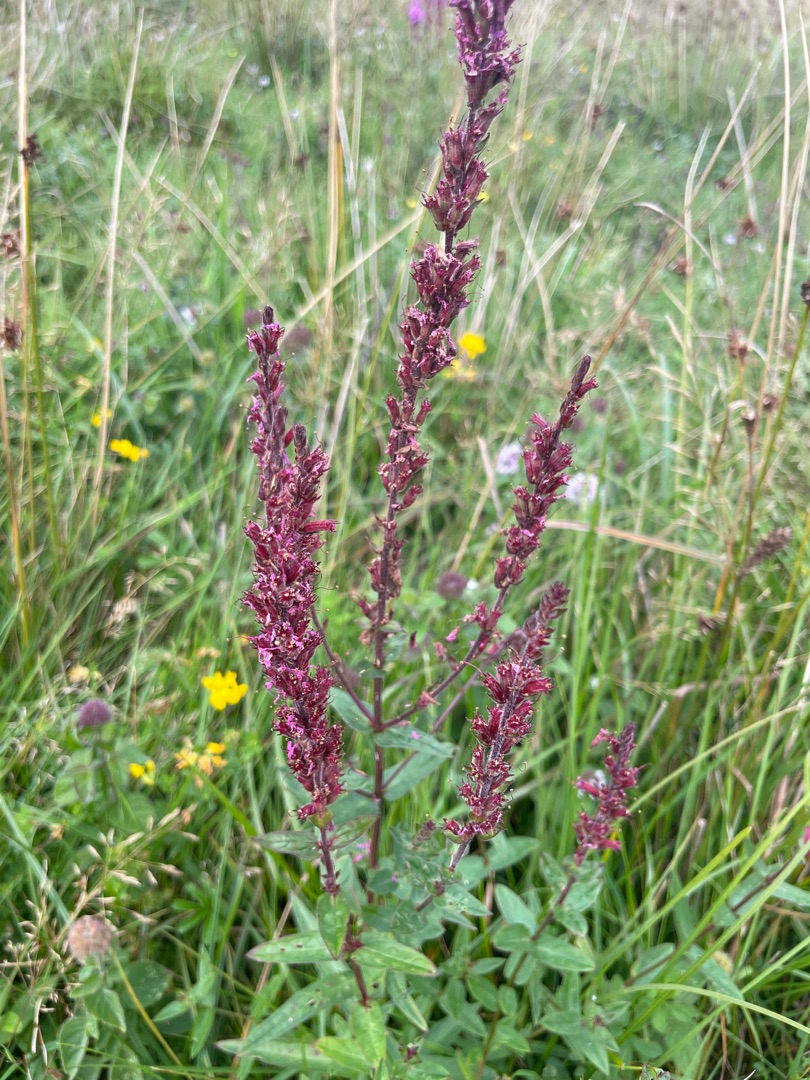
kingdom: Plantae
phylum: Tracheophyta
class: Magnoliopsida
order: Myrtales
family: Lythraceae
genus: Lythrum
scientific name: Lythrum salicaria
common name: Kattehale
